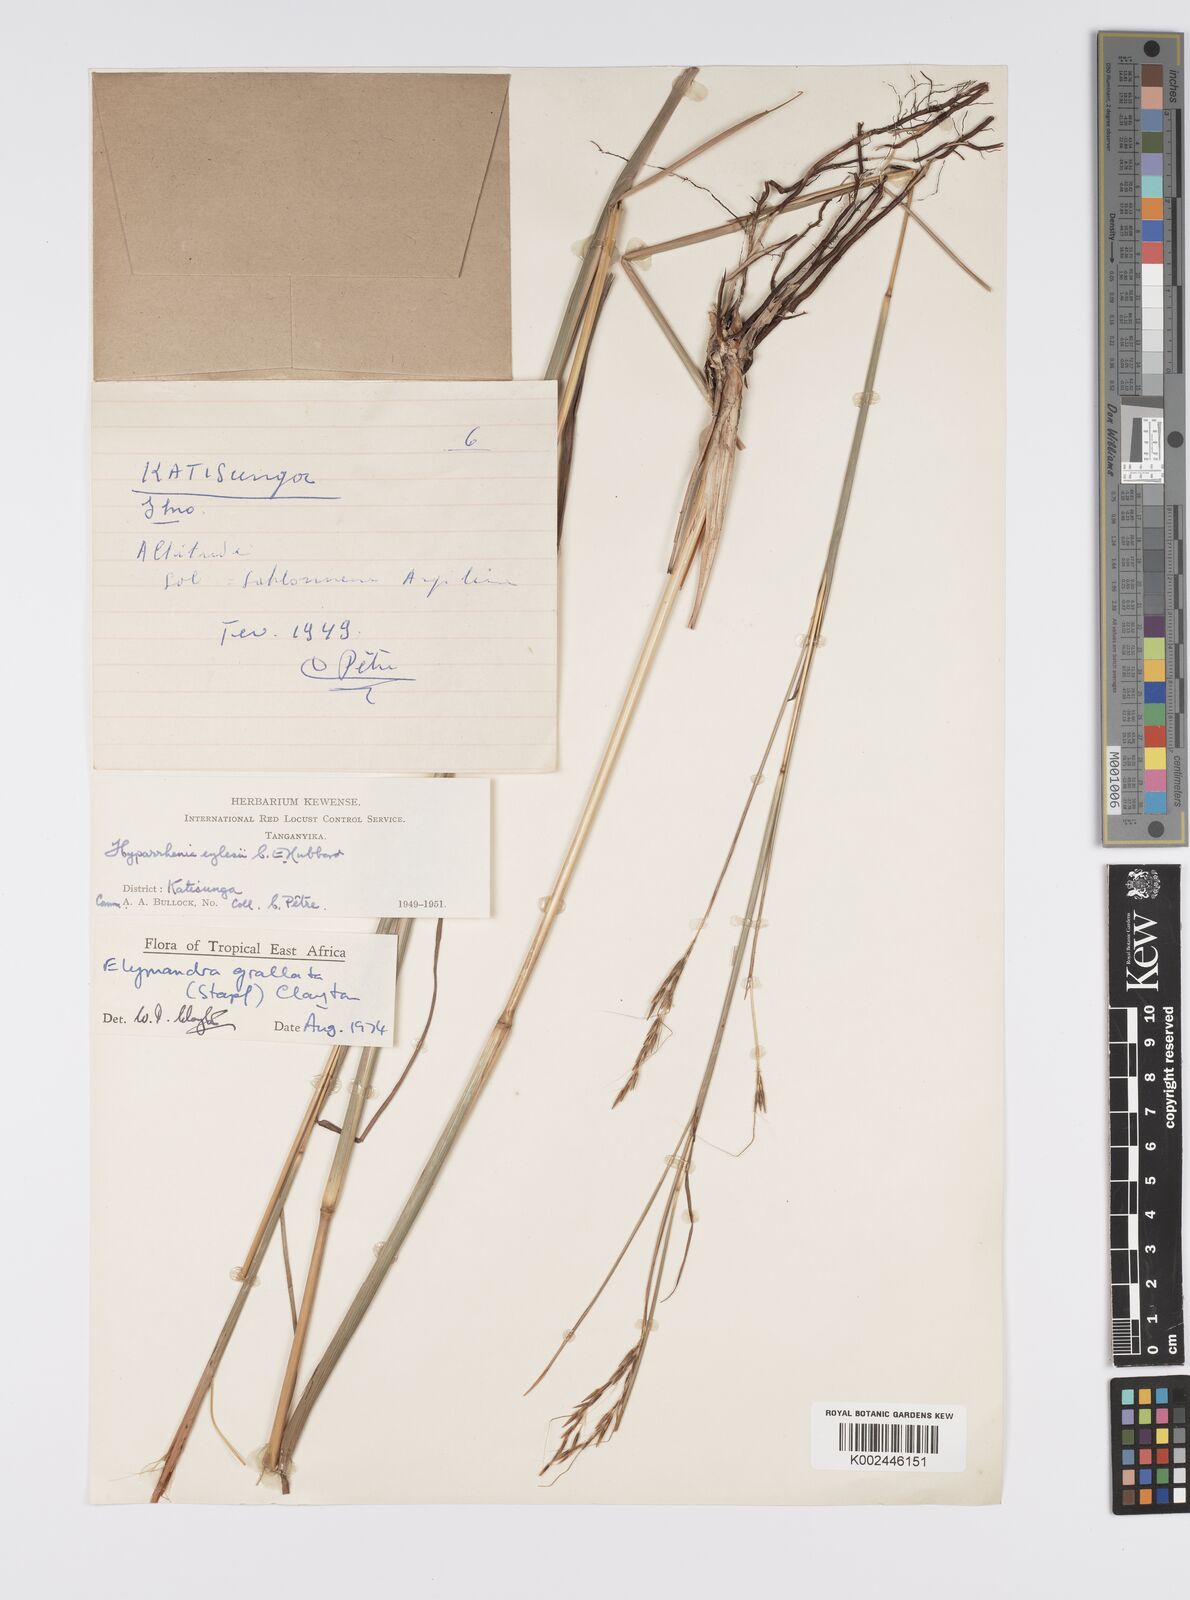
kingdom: Plantae
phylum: Tracheophyta
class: Liliopsida
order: Poales
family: Poaceae
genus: Elymandra
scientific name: Elymandra grallata
